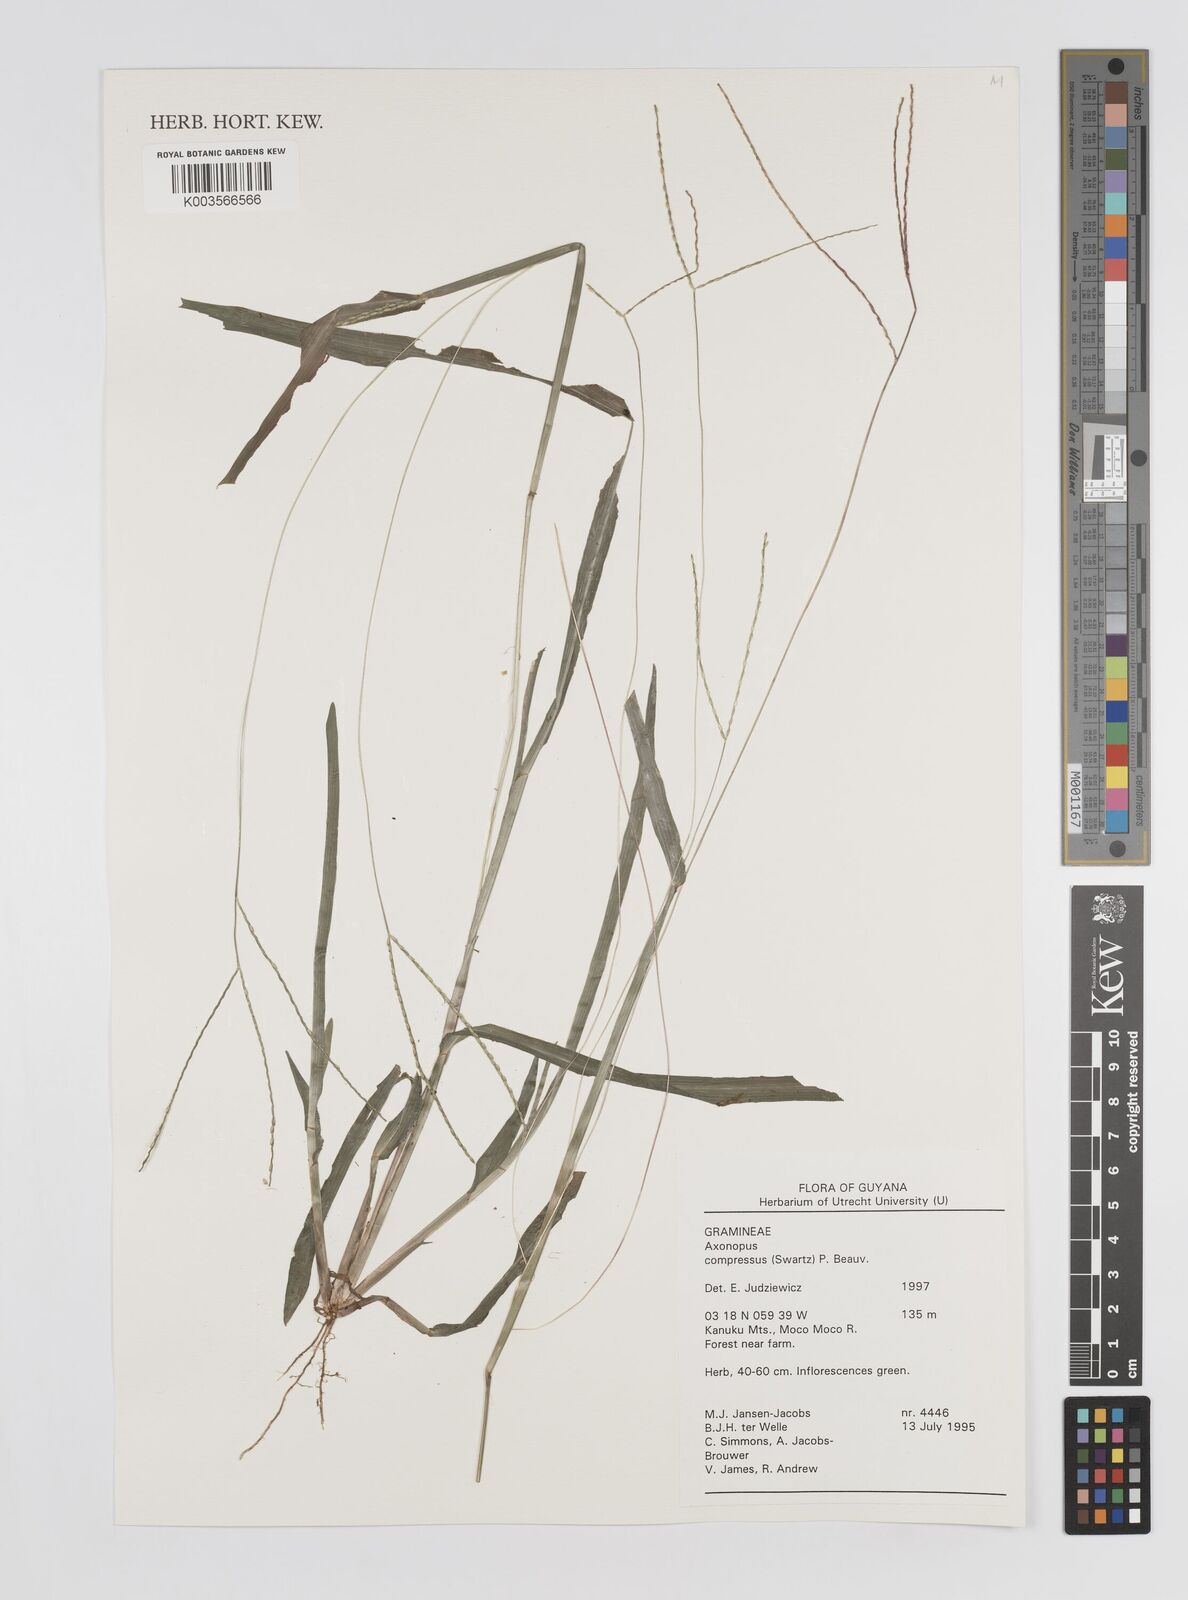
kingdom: Plantae
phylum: Tracheophyta
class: Liliopsida
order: Poales
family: Poaceae
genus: Axonopus
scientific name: Axonopus compressus
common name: American carpet grass
